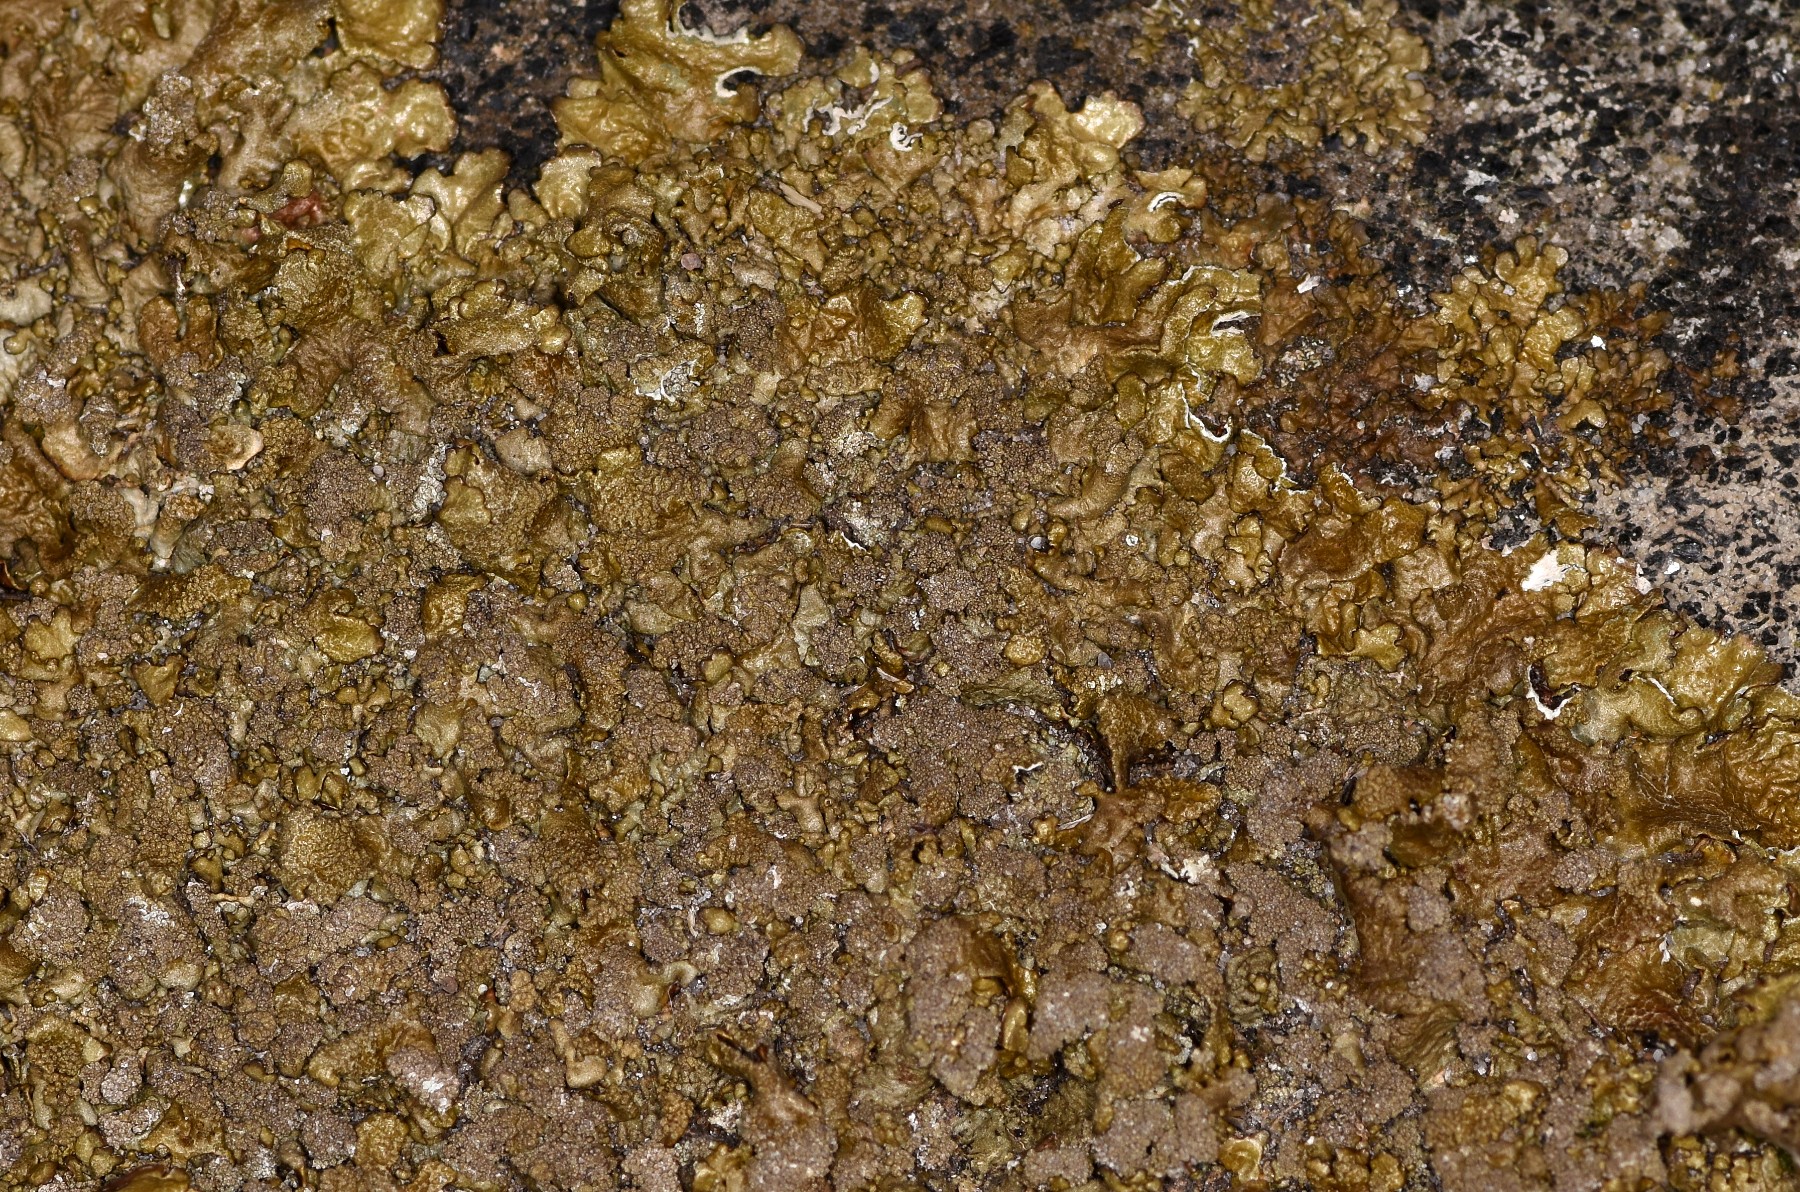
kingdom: Fungi
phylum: Ascomycota
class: Lecanoromycetes
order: Lecanorales
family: Parmeliaceae
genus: Xanthoparmelia
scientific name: Xanthoparmelia verruculifera
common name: småknoppet skållav
